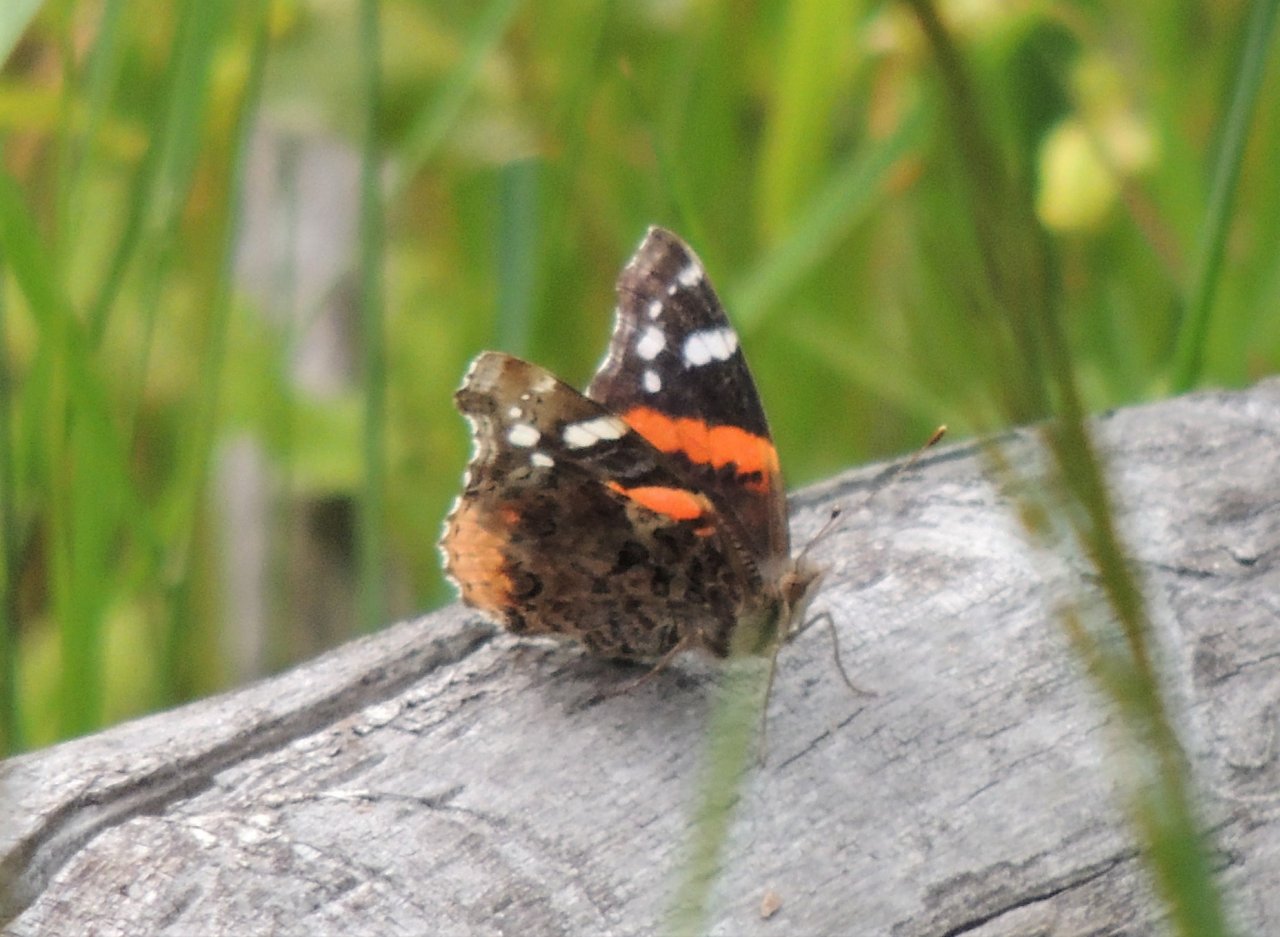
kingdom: Animalia
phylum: Arthropoda
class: Insecta
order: Lepidoptera
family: Nymphalidae
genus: Vanessa
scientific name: Vanessa atalanta
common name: Red Admiral
